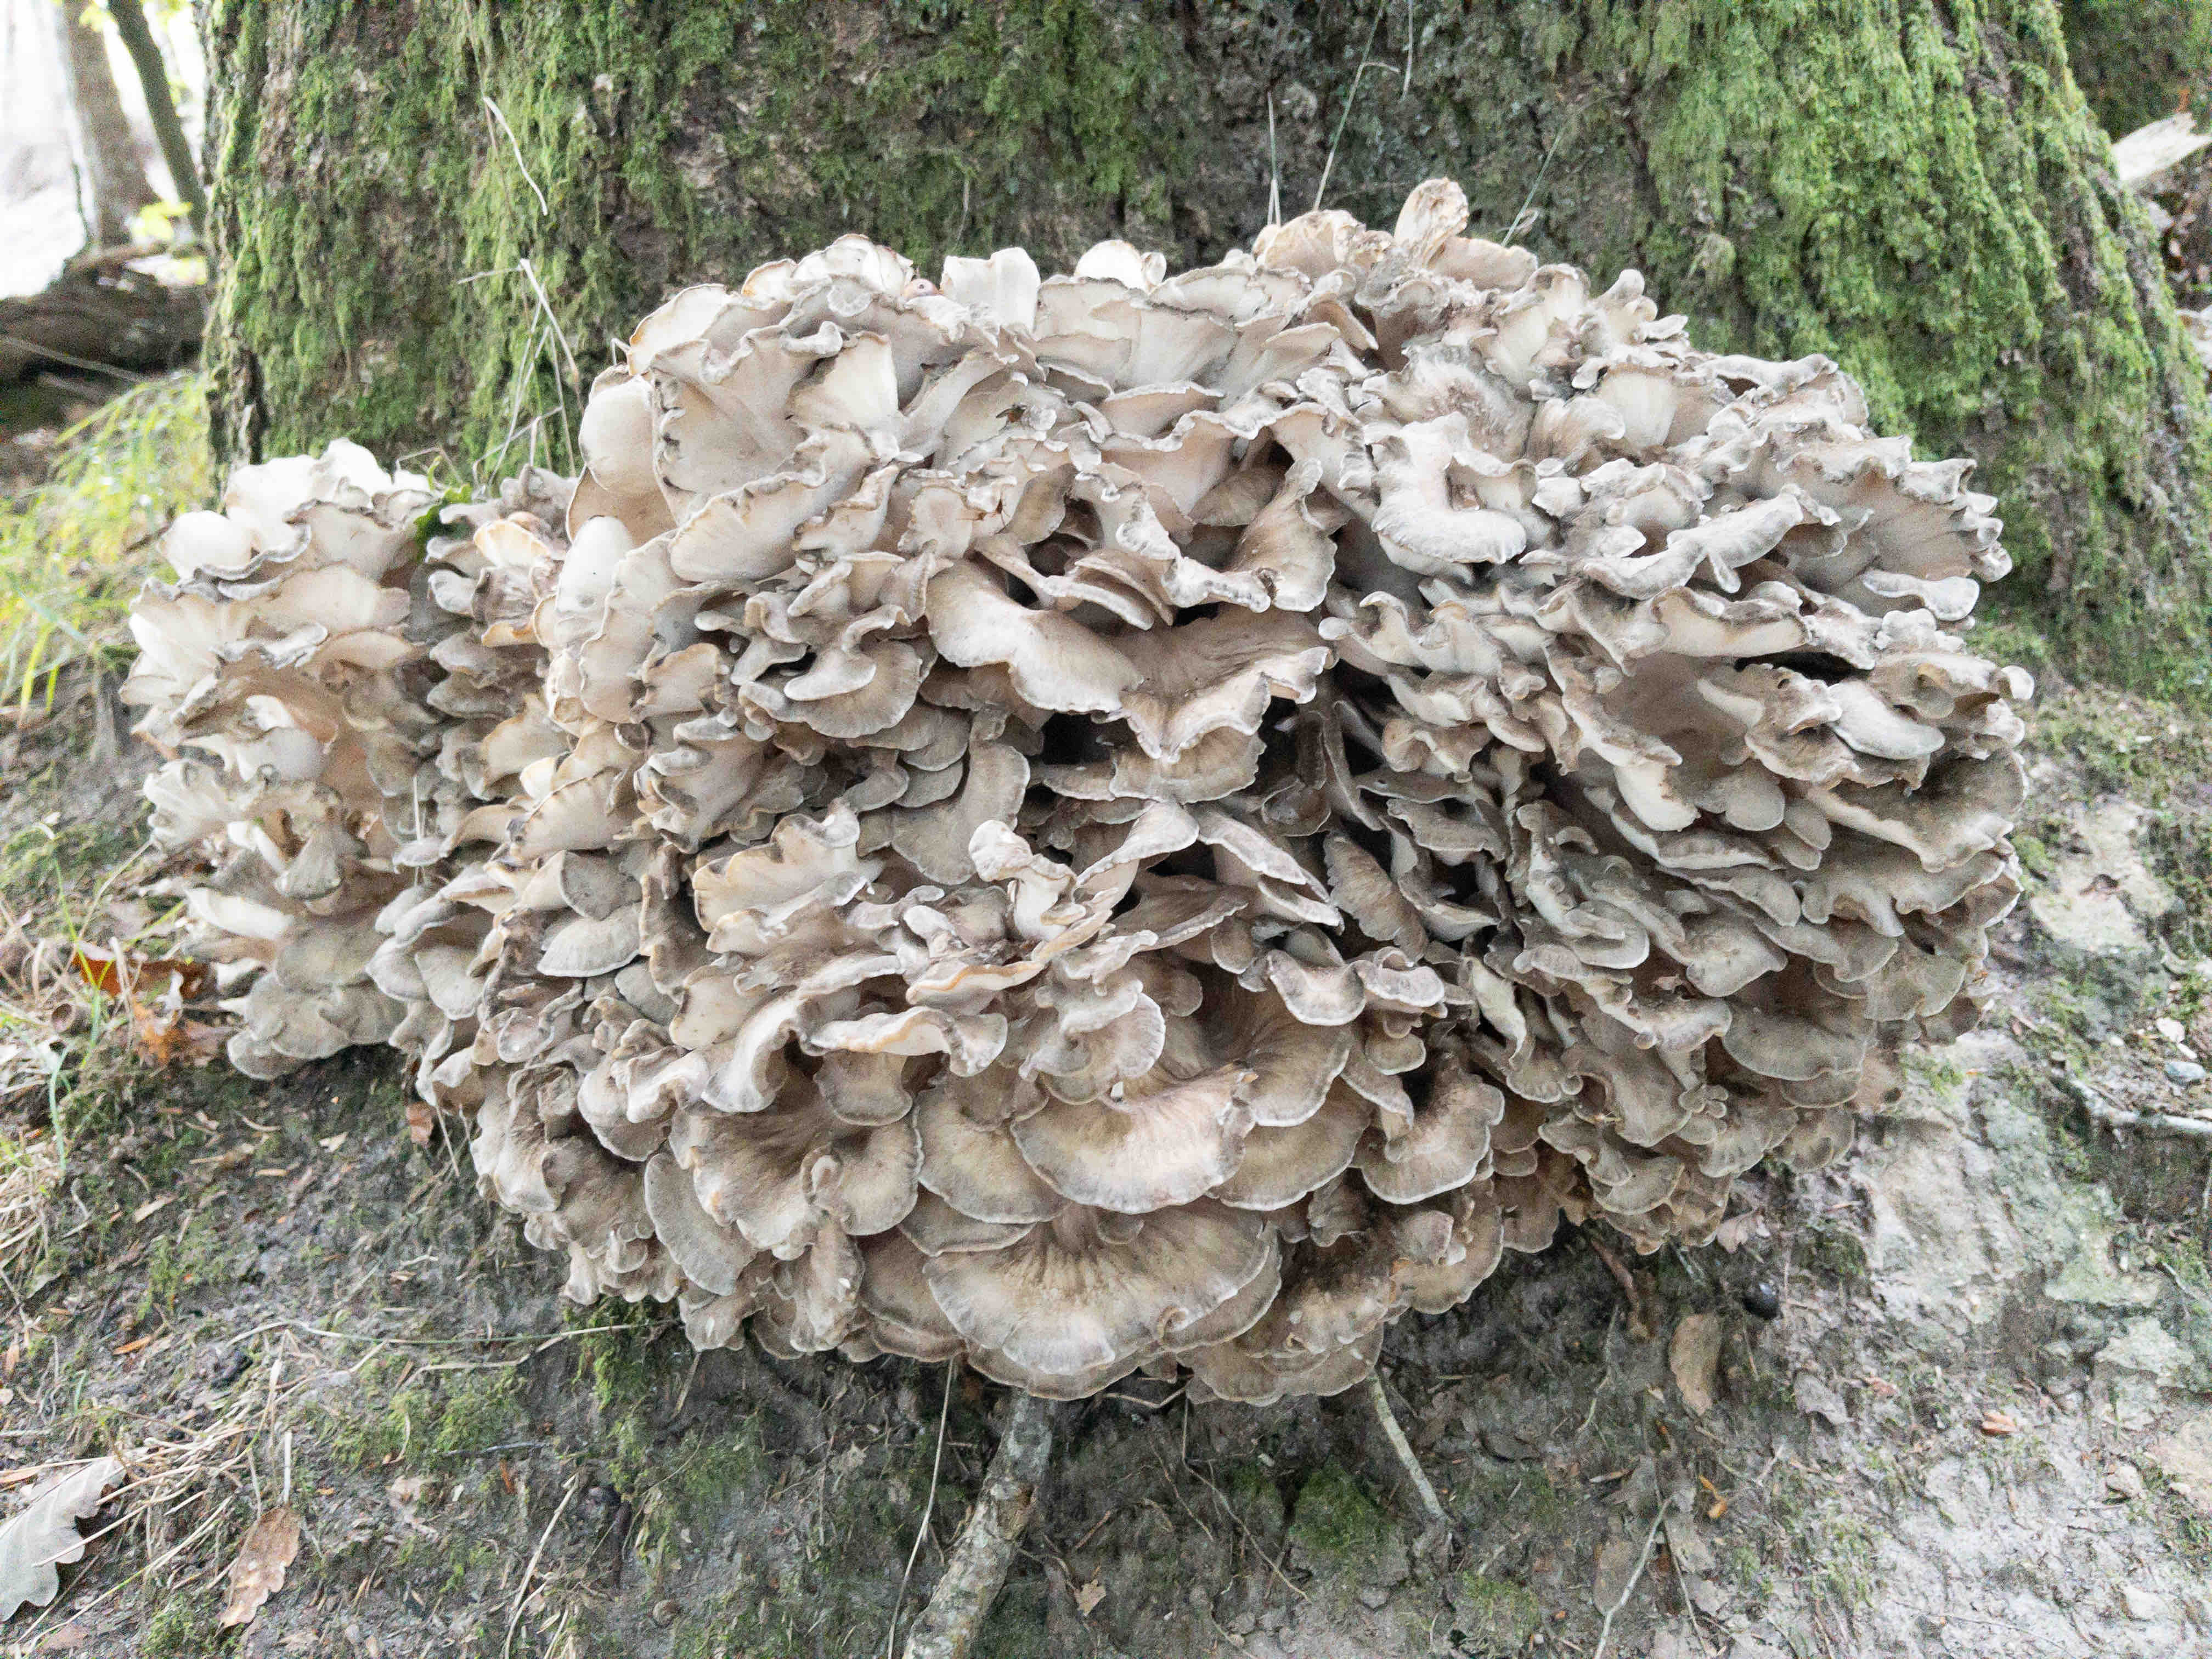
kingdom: Fungi
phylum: Basidiomycota
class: Agaricomycetes
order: Polyporales
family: Grifolaceae
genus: Grifola
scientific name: Grifola frondosa
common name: tueporesvamp
